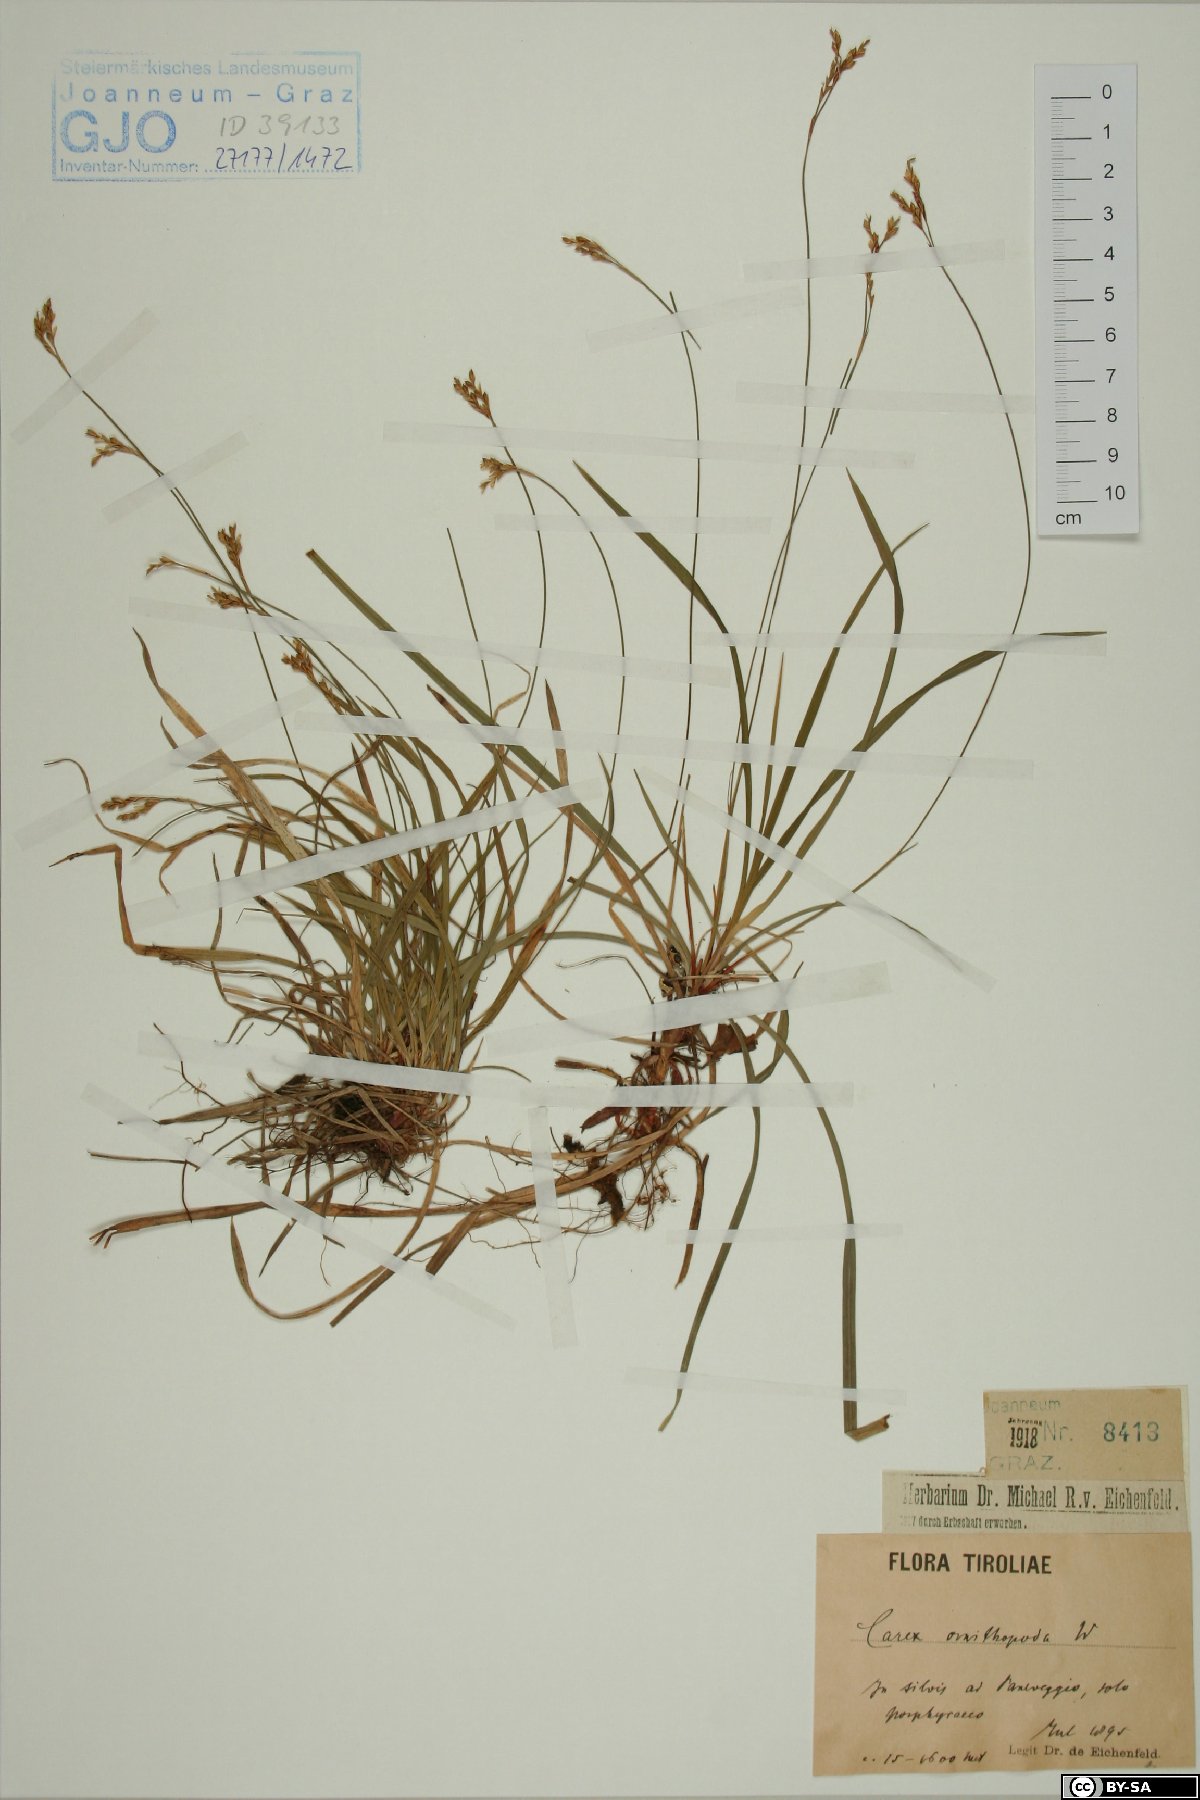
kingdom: Plantae
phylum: Tracheophyta
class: Liliopsida
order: Poales
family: Cyperaceae
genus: Carex
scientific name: Carex ornithopoda
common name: Bird's-foot sedge
